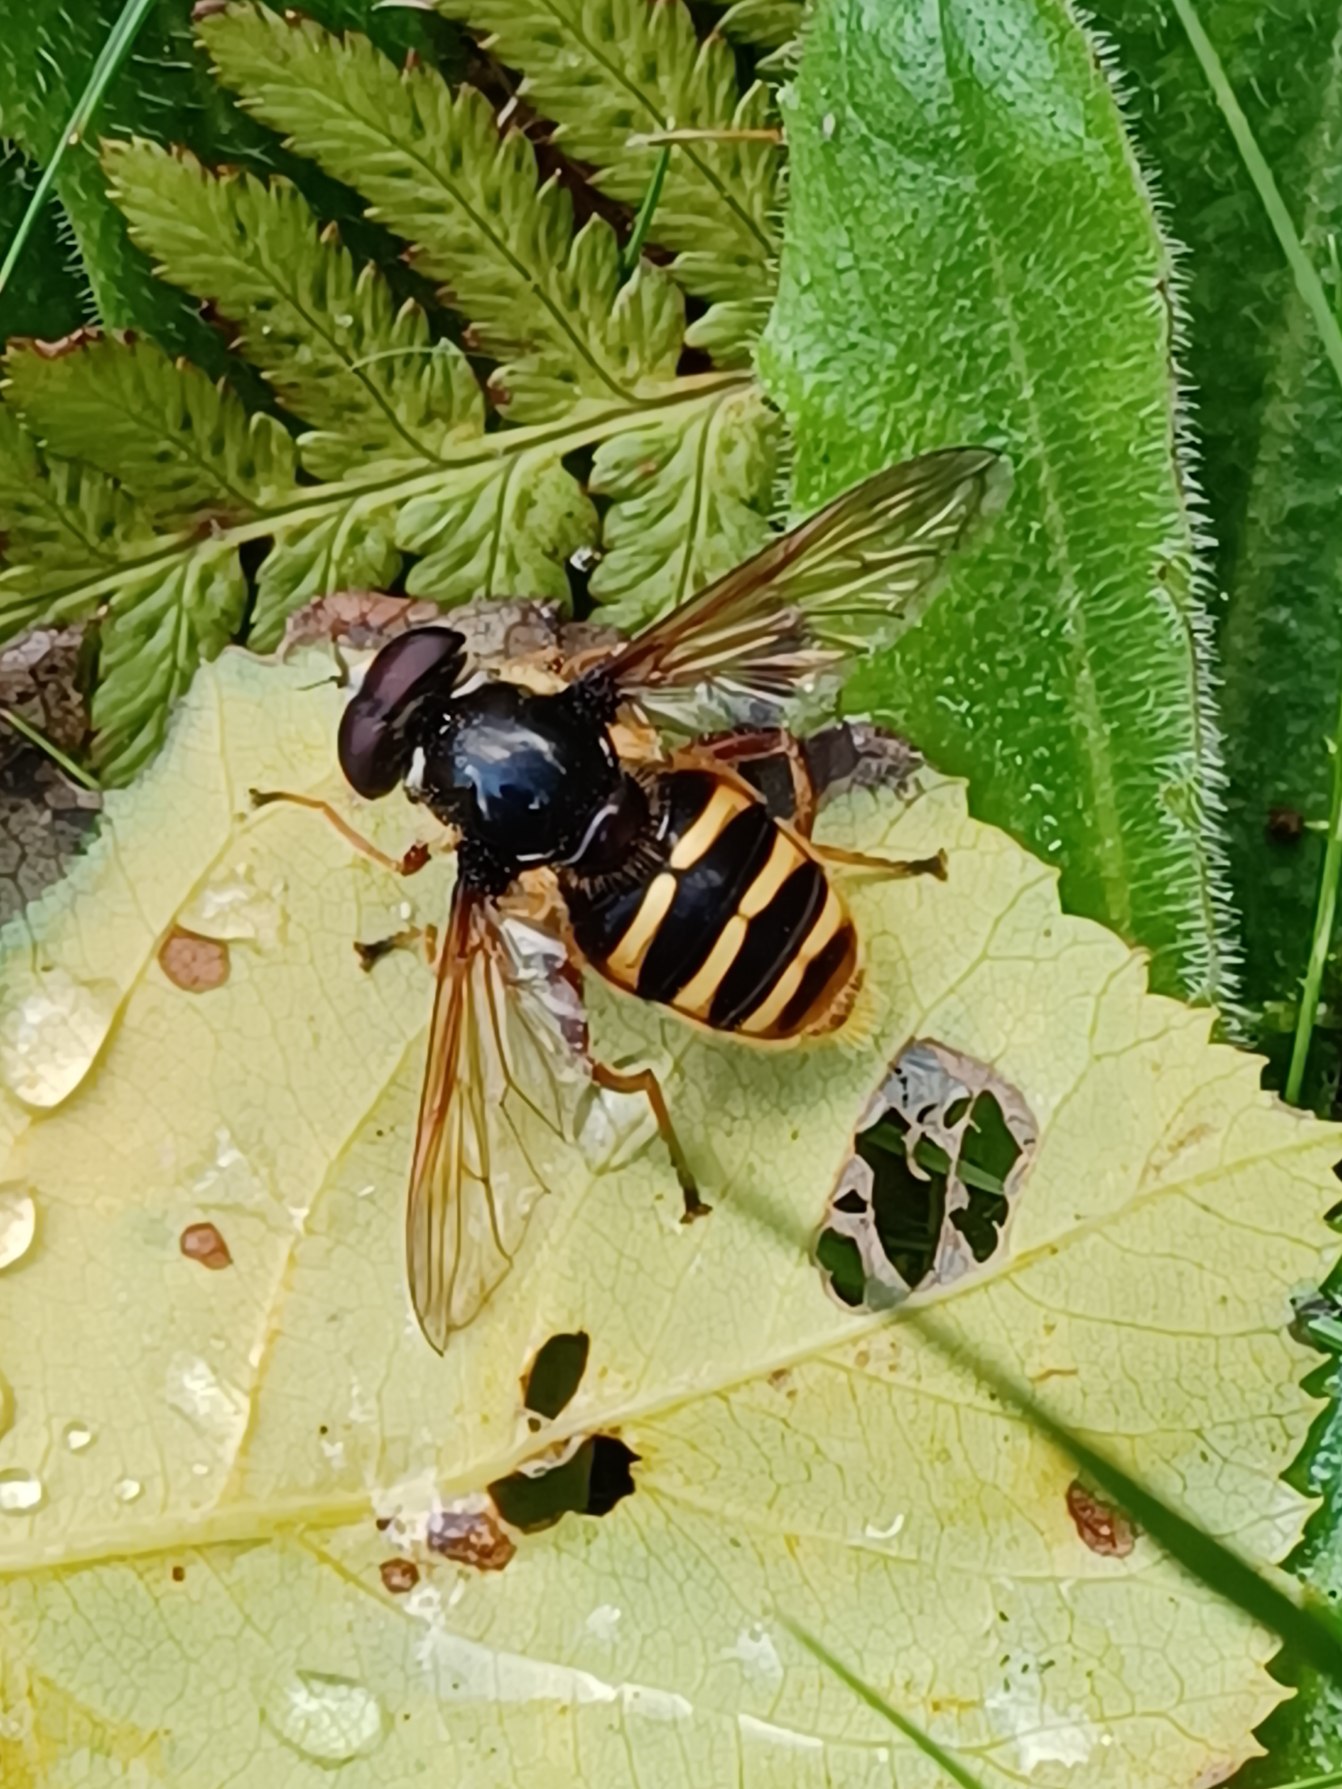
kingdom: Animalia
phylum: Arthropoda
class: Insecta
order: Diptera
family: Syrphidae
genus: Sericomyia
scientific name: Sericomyia silentis
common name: Tørve-silkesvirreflue
